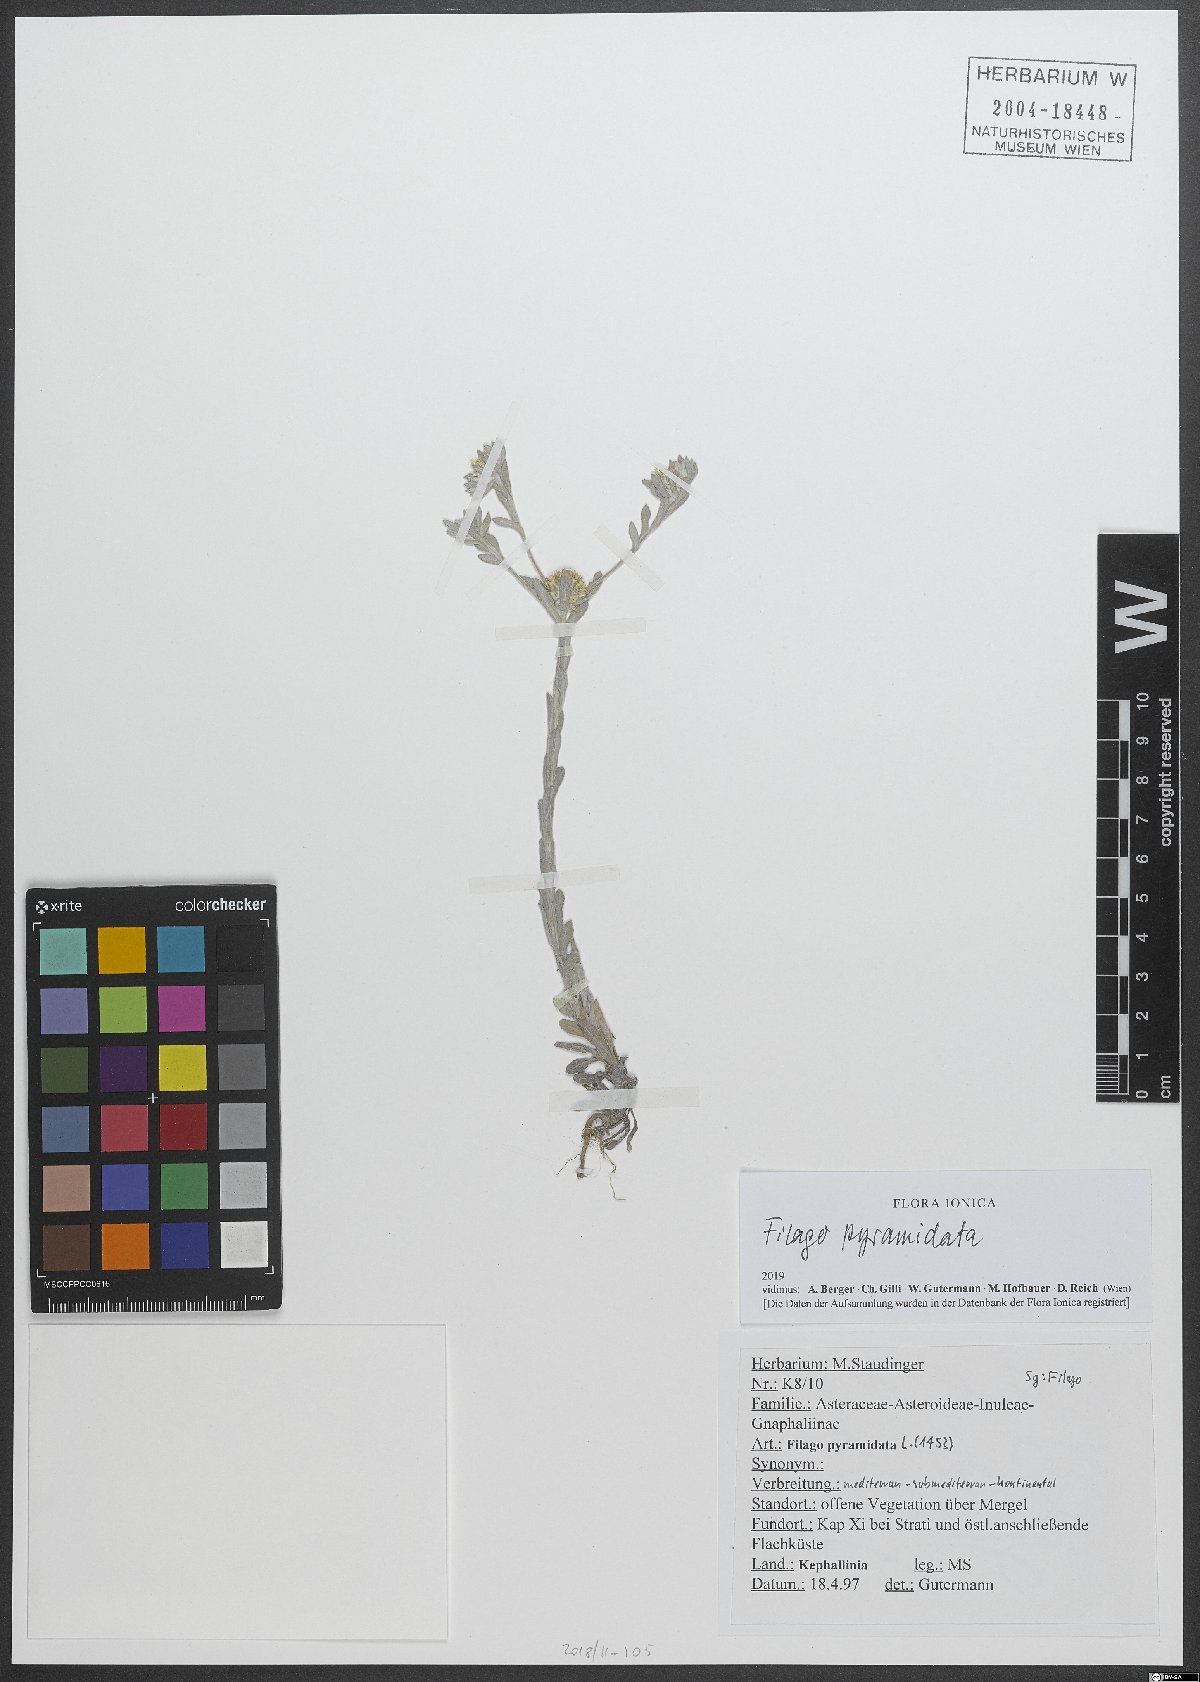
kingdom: Plantae
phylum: Tracheophyta
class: Magnoliopsida
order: Asterales
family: Asteraceae
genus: Filago
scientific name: Filago pyramidata
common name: Broad-leaved cudweed
